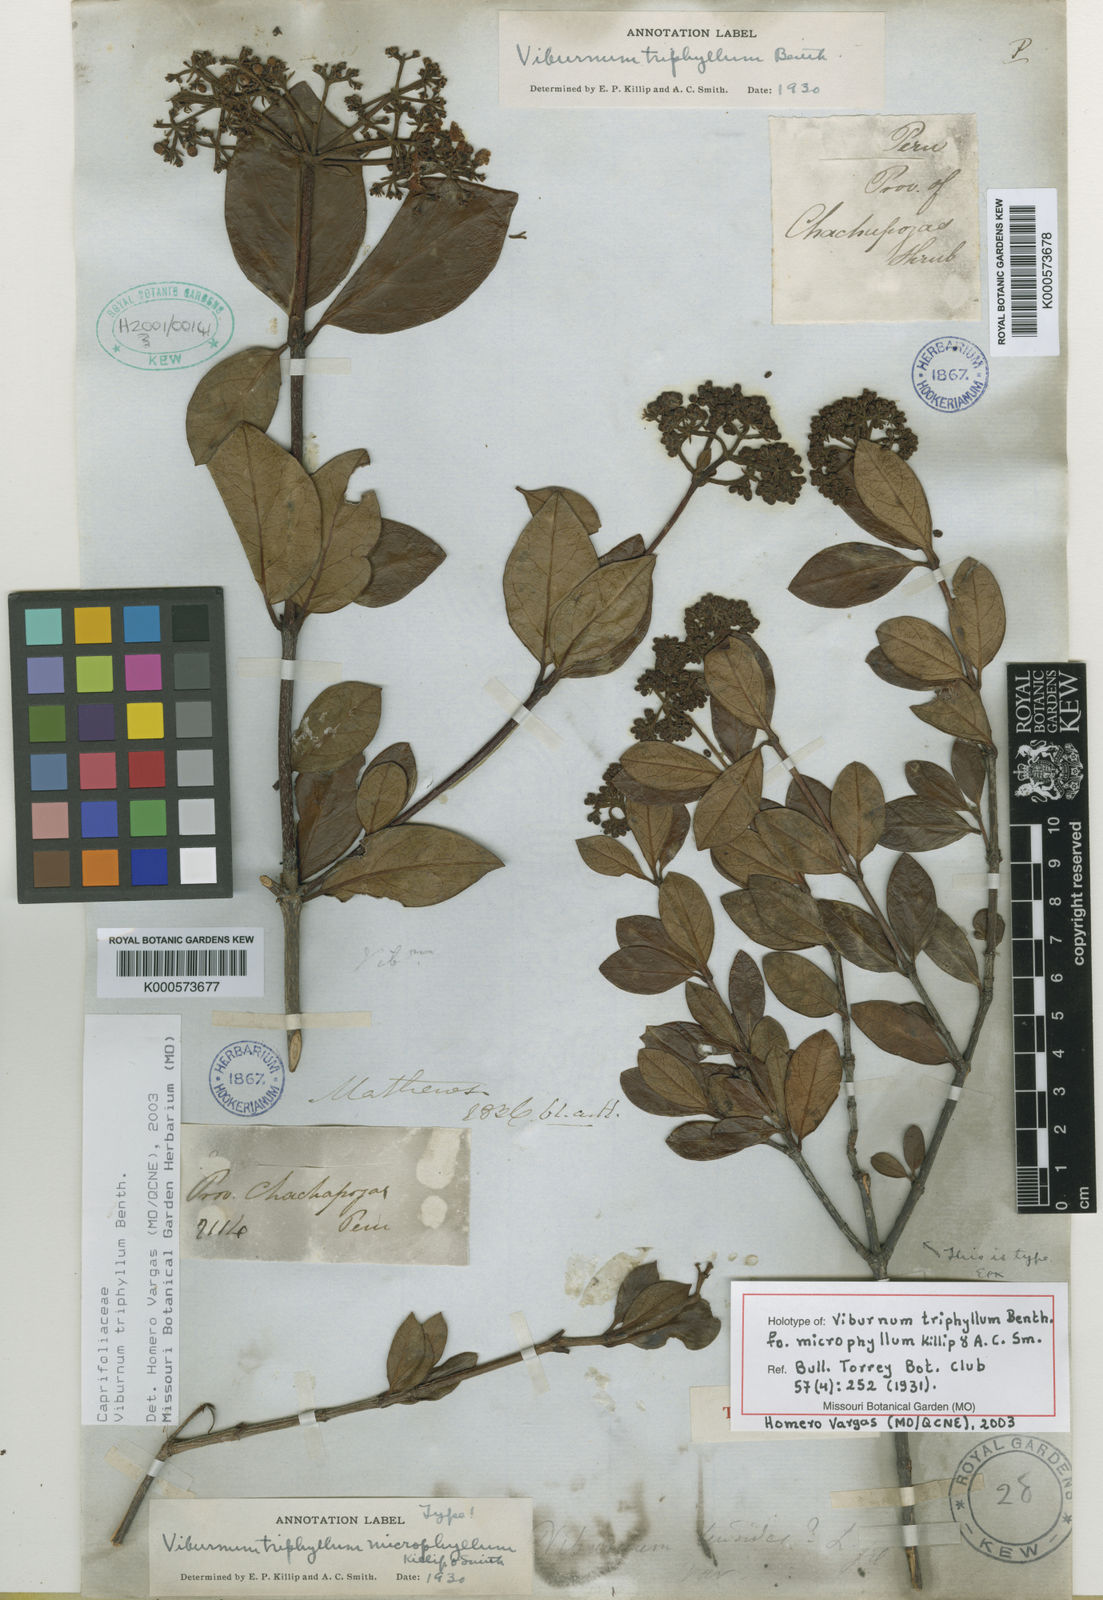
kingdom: Plantae
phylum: Tracheophyta
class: Magnoliopsida
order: Dipsacales
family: Viburnaceae
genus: Viburnum
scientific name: Viburnum triphyllum
